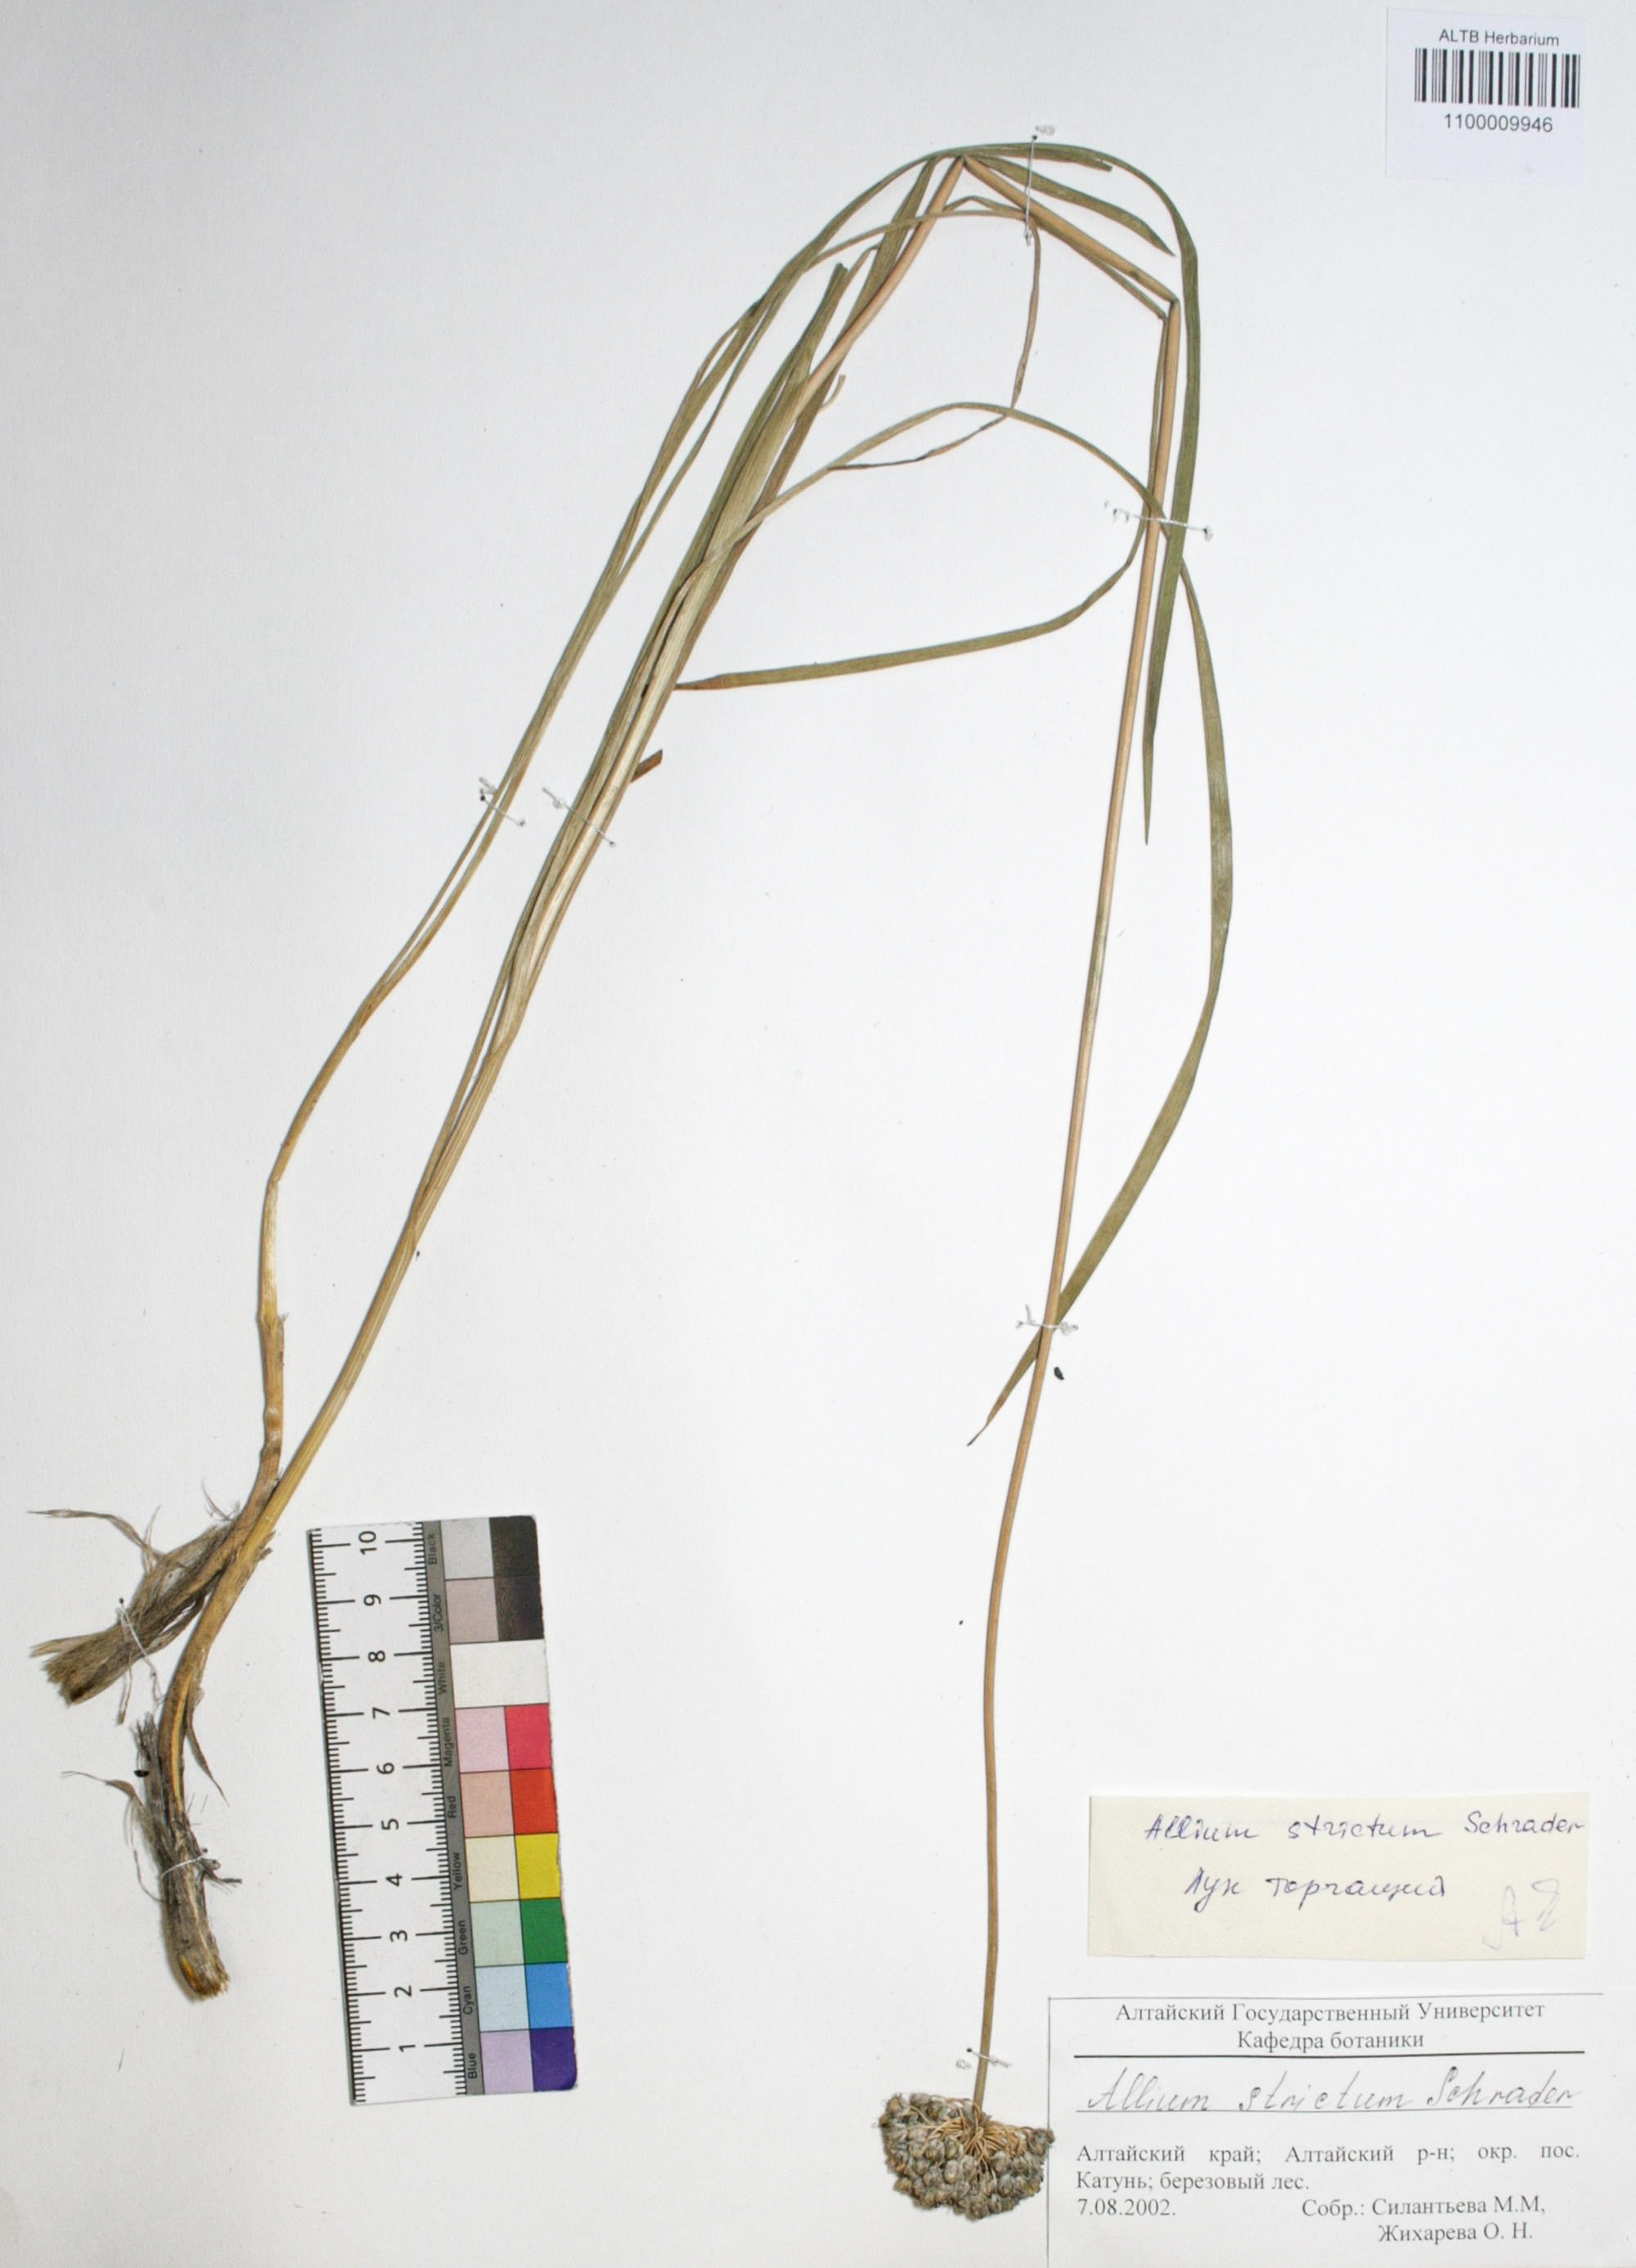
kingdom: Plantae
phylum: Tracheophyta
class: Liliopsida
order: Asparagales
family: Amaryllidaceae
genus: Allium
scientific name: Allium strictum
